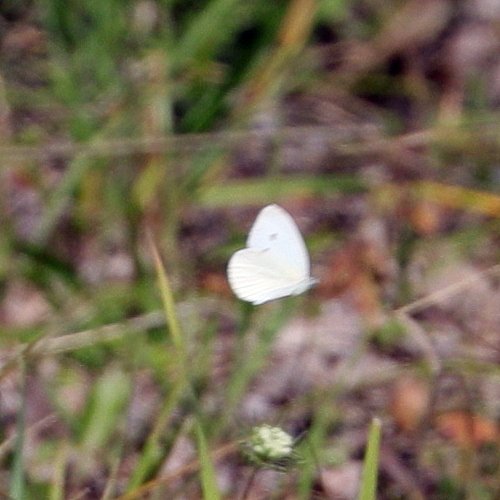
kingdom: Animalia
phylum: Arthropoda
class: Insecta
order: Lepidoptera
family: Pieridae
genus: Pieris
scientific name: Pieris rapae
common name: Cabbage White
